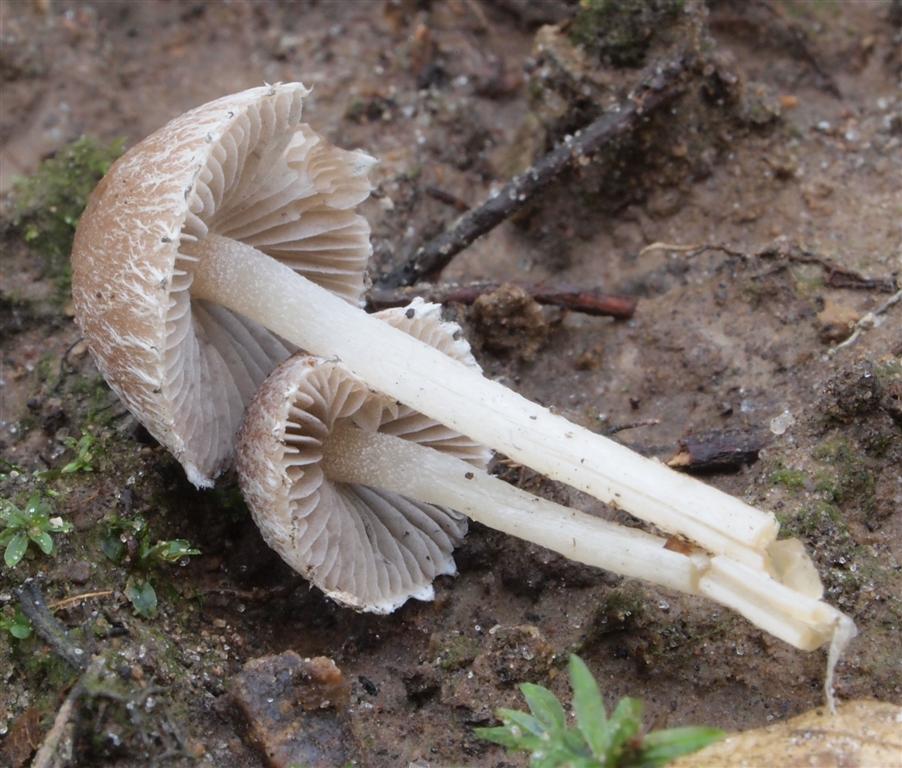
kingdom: Fungi
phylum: Basidiomycota
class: Agaricomycetes
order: Agaricales
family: Psathyrellaceae
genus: Psathyrella
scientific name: Psathyrella impexa
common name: rødmende mørkhat
